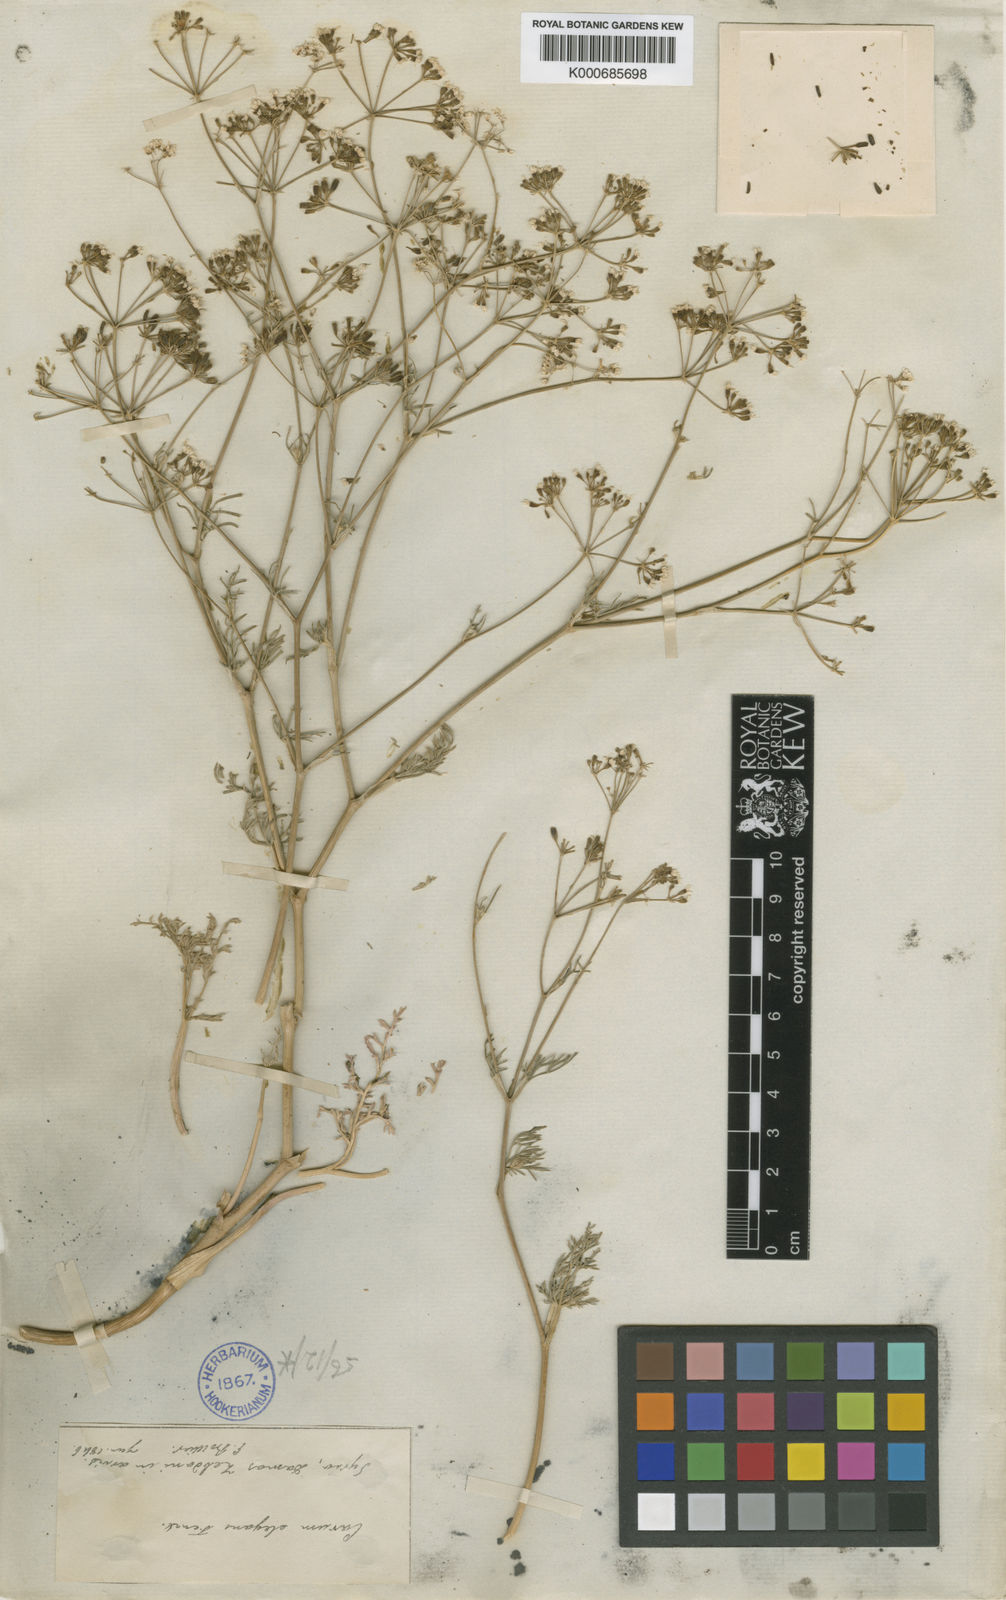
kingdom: Plantae
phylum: Tracheophyta
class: Magnoliopsida
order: Apiales
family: Apiaceae
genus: Bunium
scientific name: Bunium paucifolium
